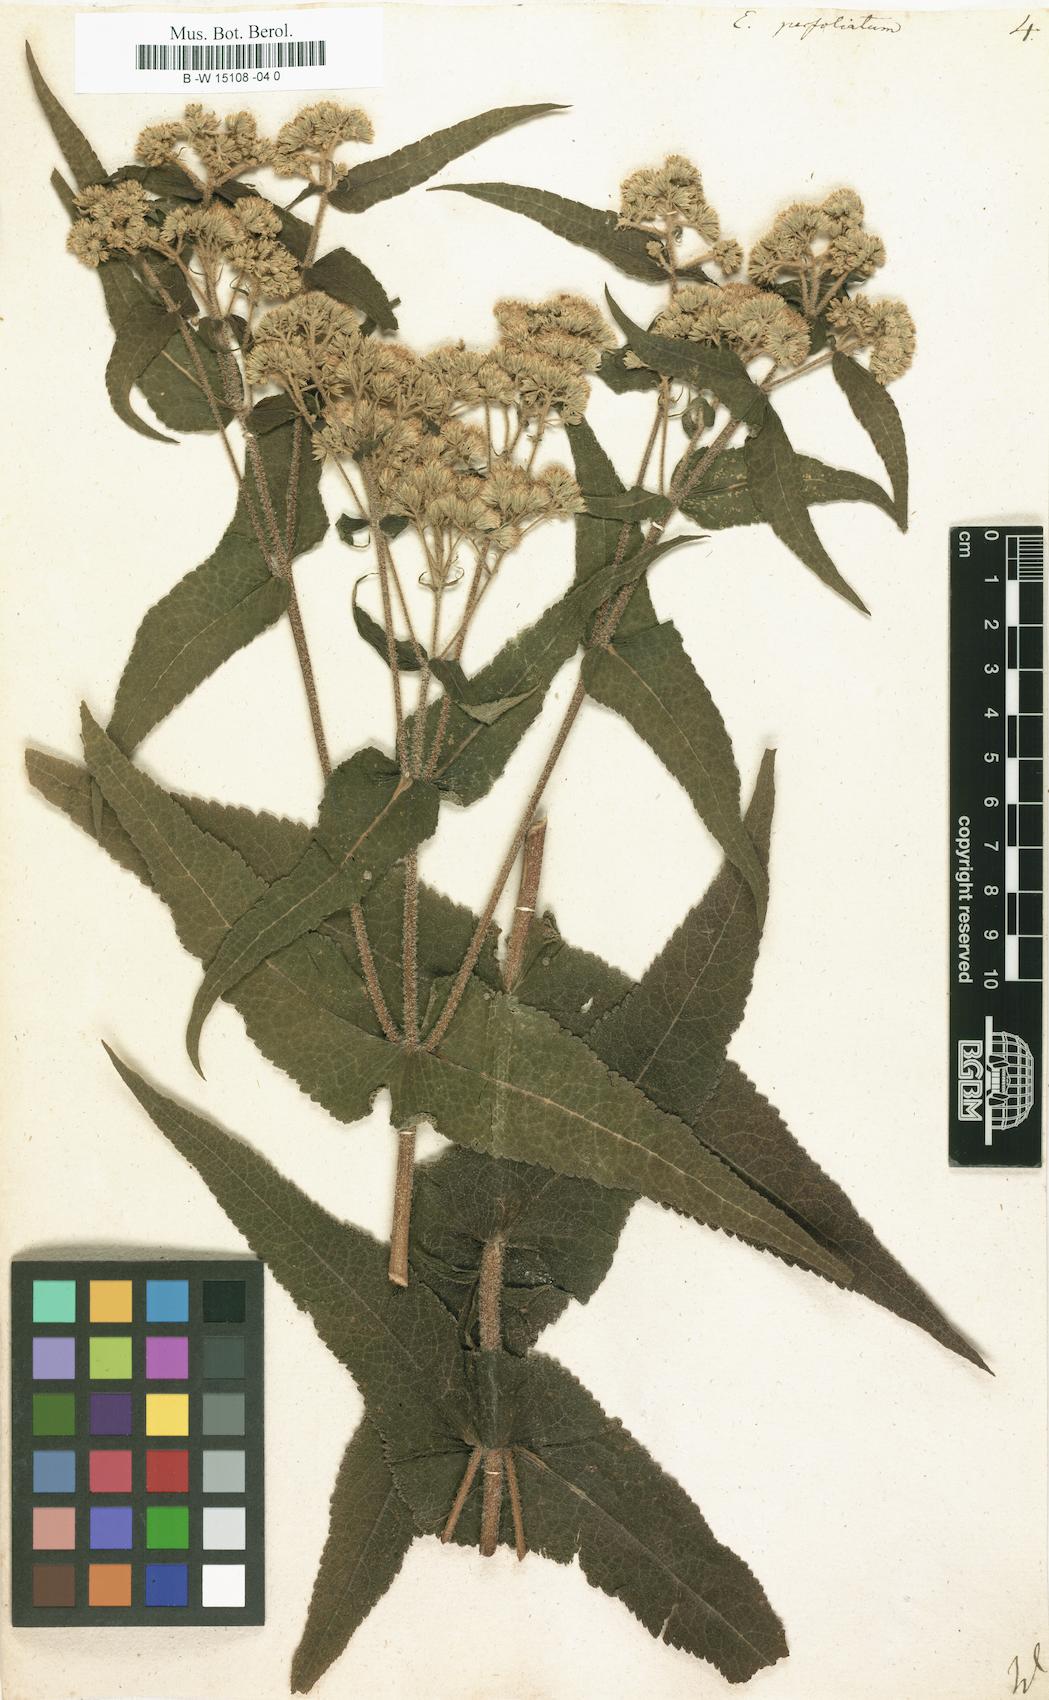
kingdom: Plantae
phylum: Tracheophyta
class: Magnoliopsida
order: Asterales
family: Asteraceae
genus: Eupatorium
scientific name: Eupatorium perfoliatum
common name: Boneset
